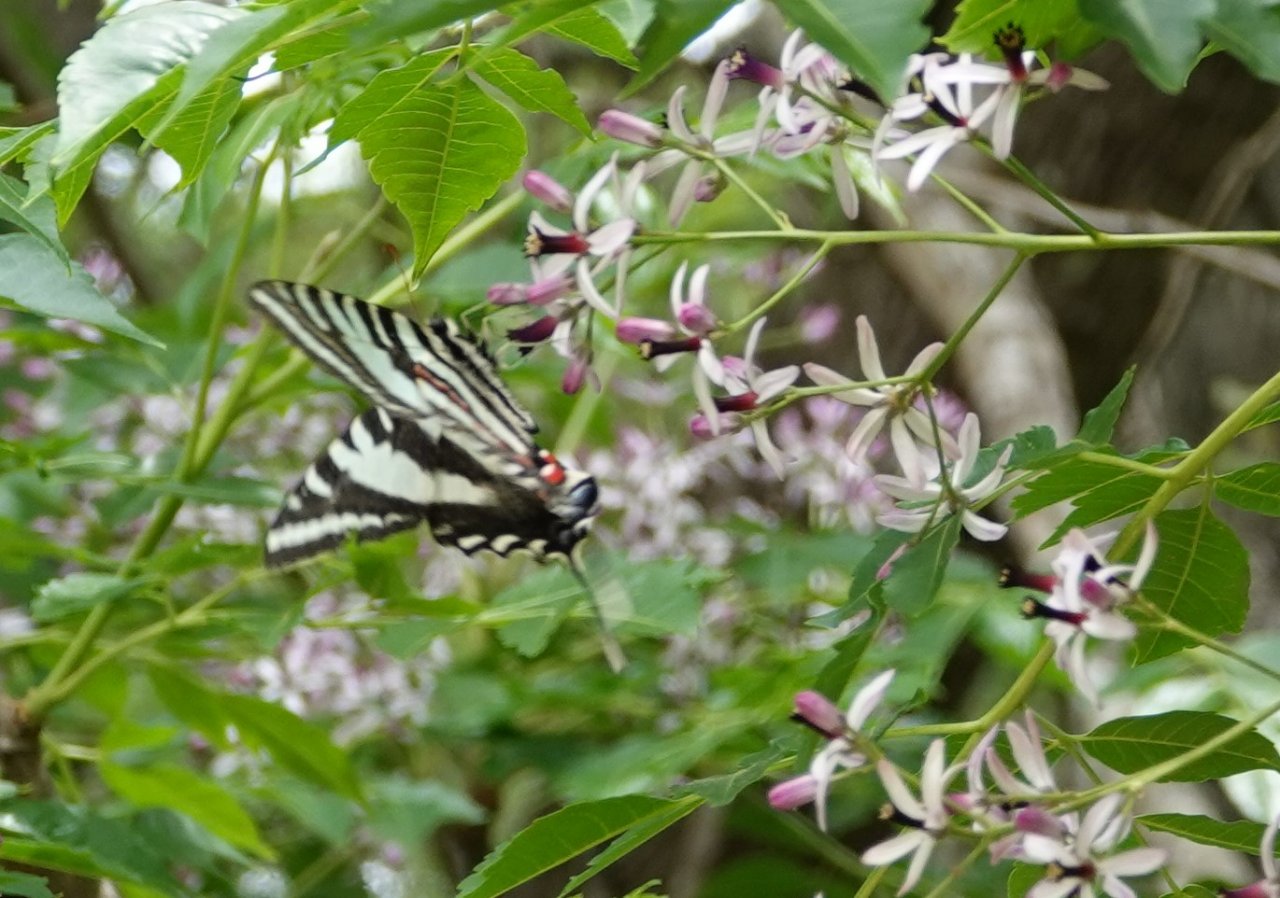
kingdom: Animalia
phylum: Arthropoda
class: Insecta
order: Lepidoptera
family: Papilionidae
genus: Protographium
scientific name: Protographium marcellus
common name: Zebra Swallowtail
